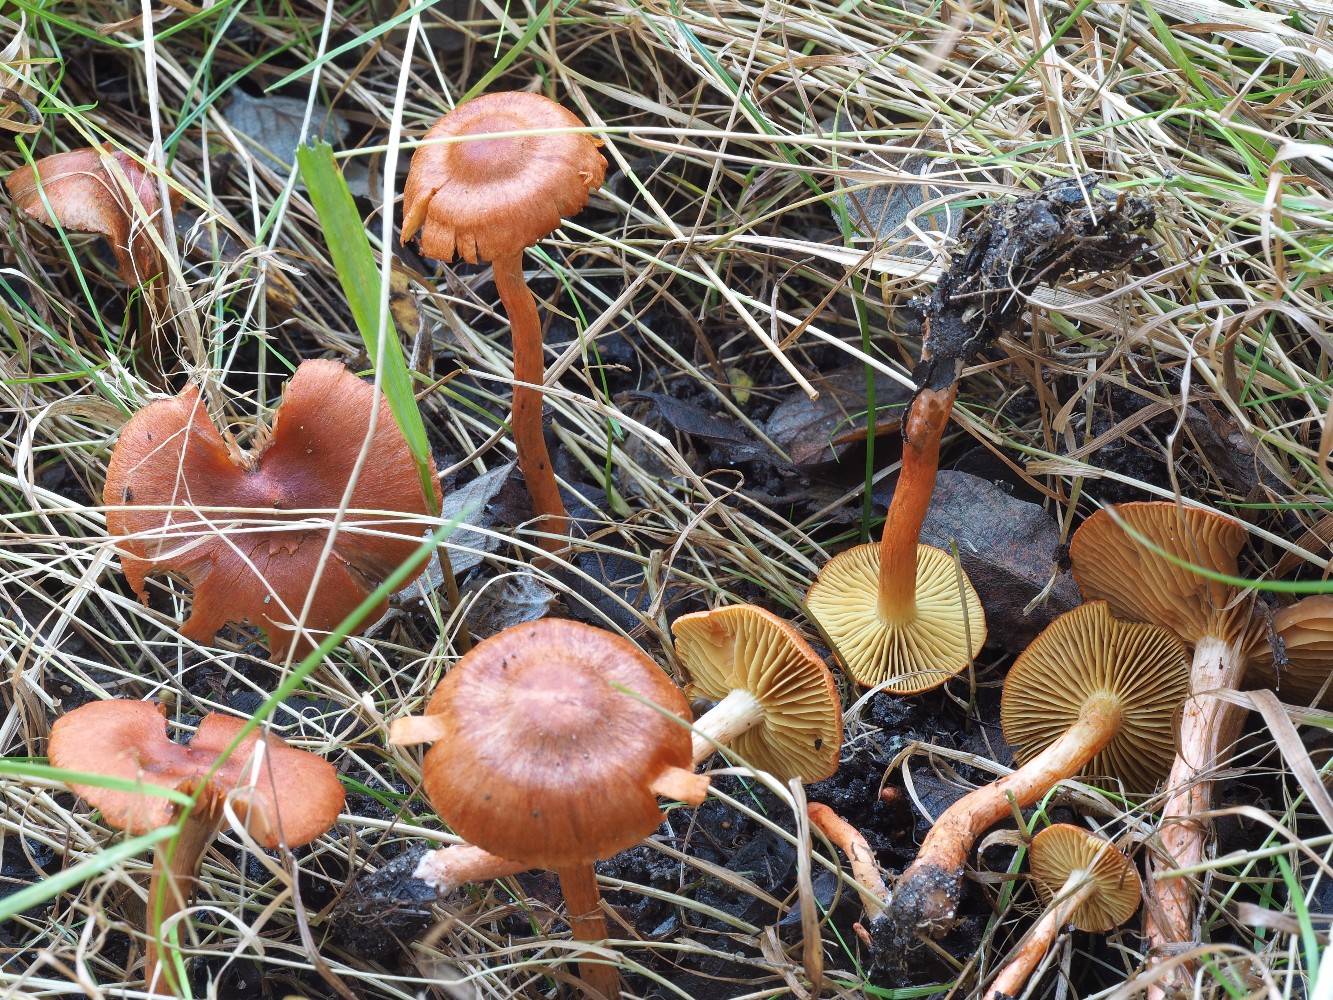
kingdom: Fungi
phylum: Basidiomycota
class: Agaricomycetes
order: Agaricales
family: Cortinariaceae
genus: Cortinarius
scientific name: Cortinarius uliginosus
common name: mose-slørhat
